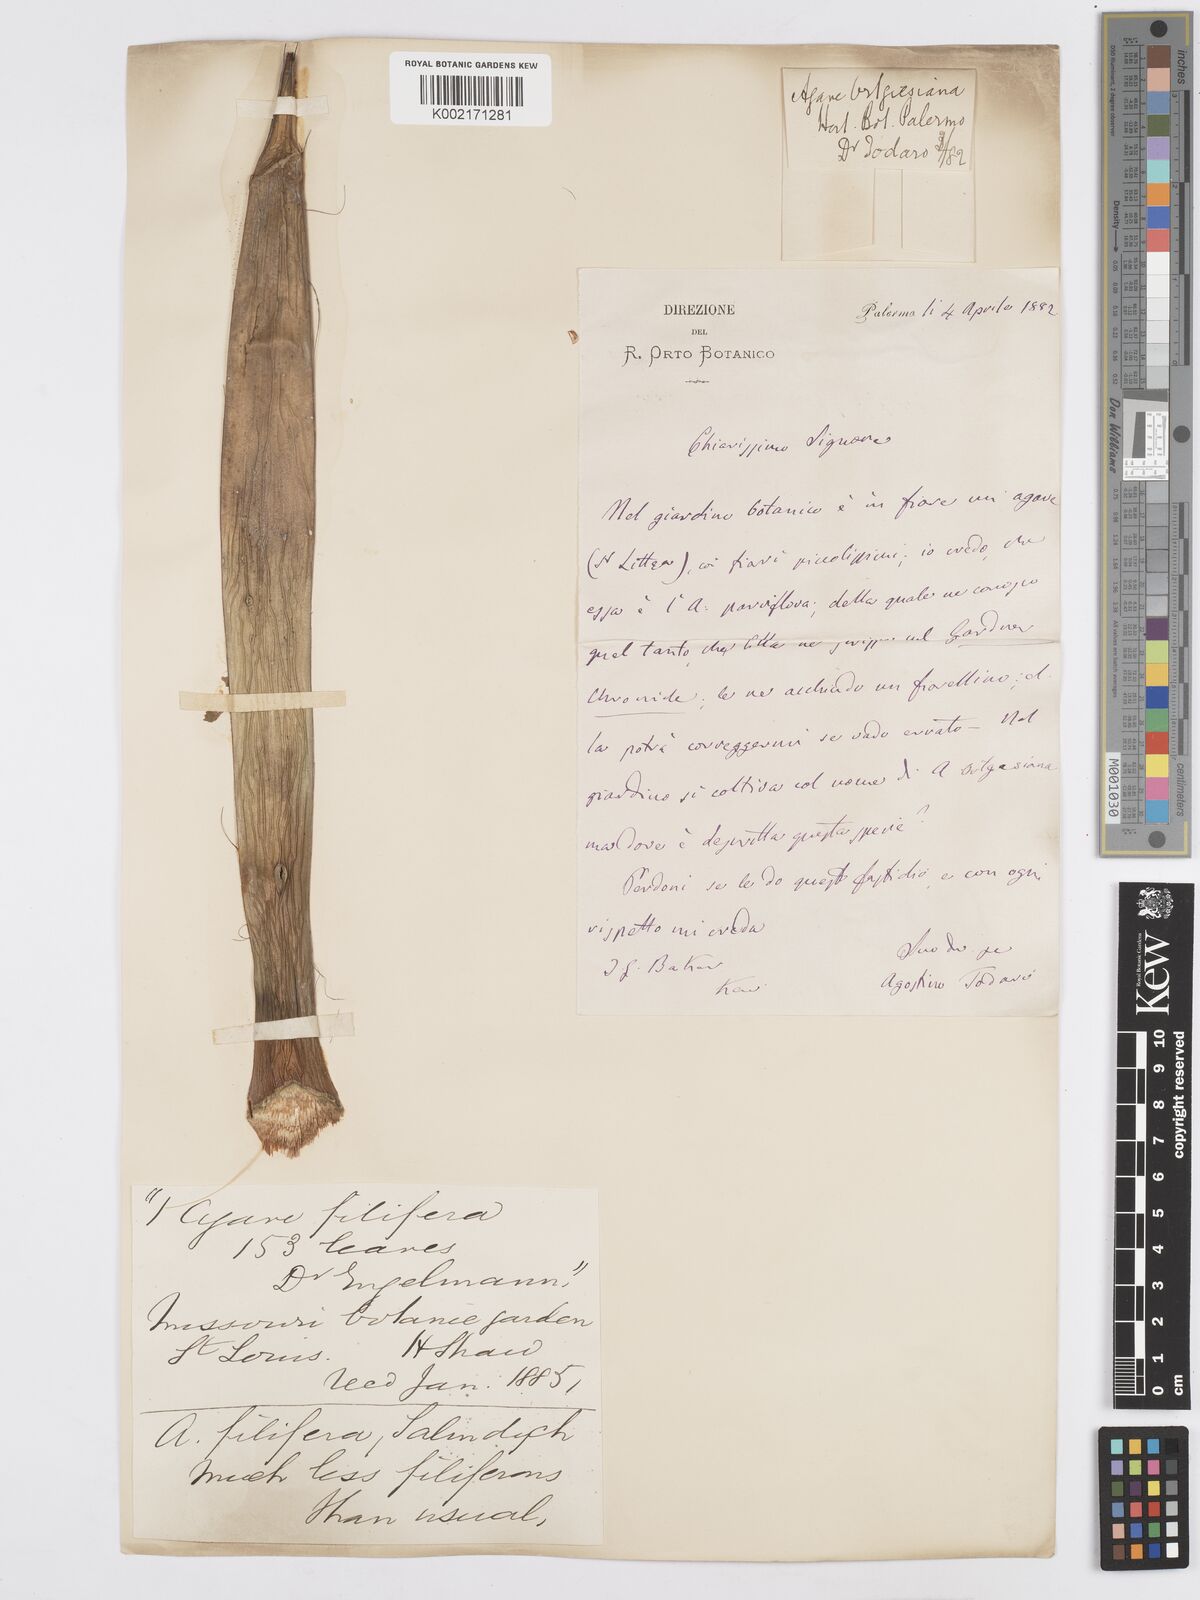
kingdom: Plantae
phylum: Tracheophyta
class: Liliopsida
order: Asparagales
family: Asparagaceae
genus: Agave
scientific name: Agave filifera
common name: Thread agave
